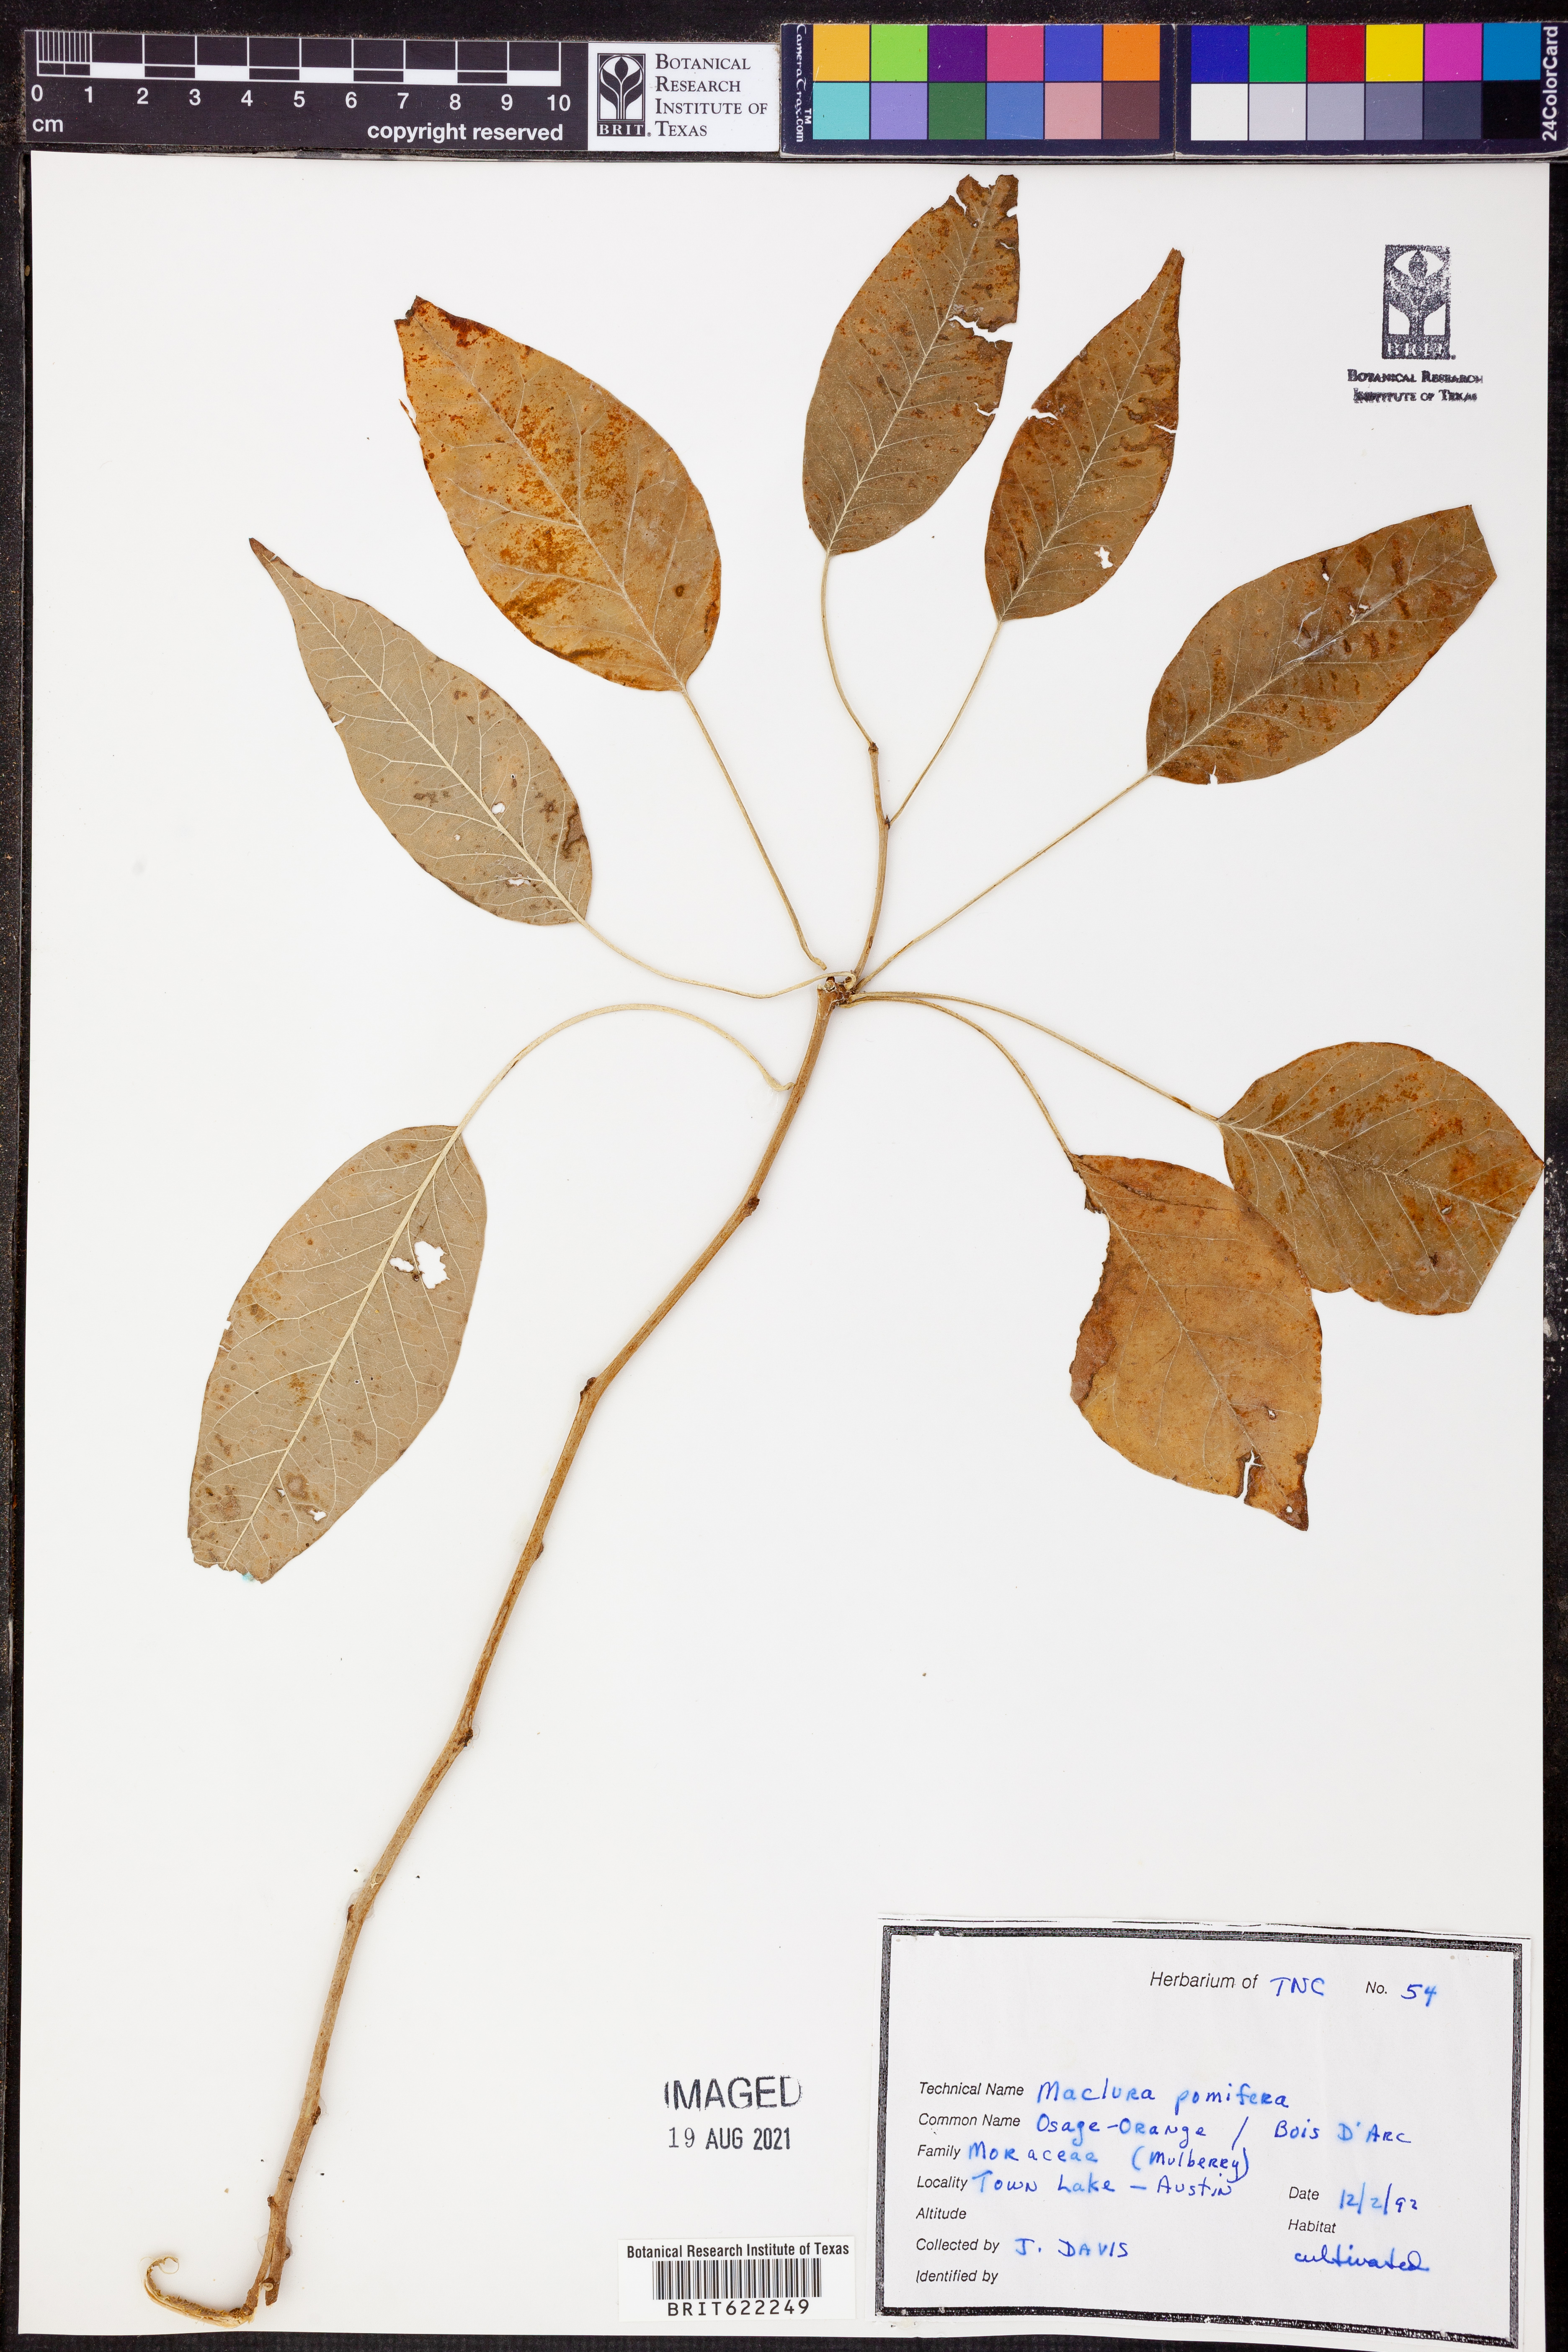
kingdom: Plantae
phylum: Tracheophyta
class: Magnoliopsida
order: Rosales
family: Moraceae
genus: Maclura
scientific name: Maclura pomifera
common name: Osage-orange
